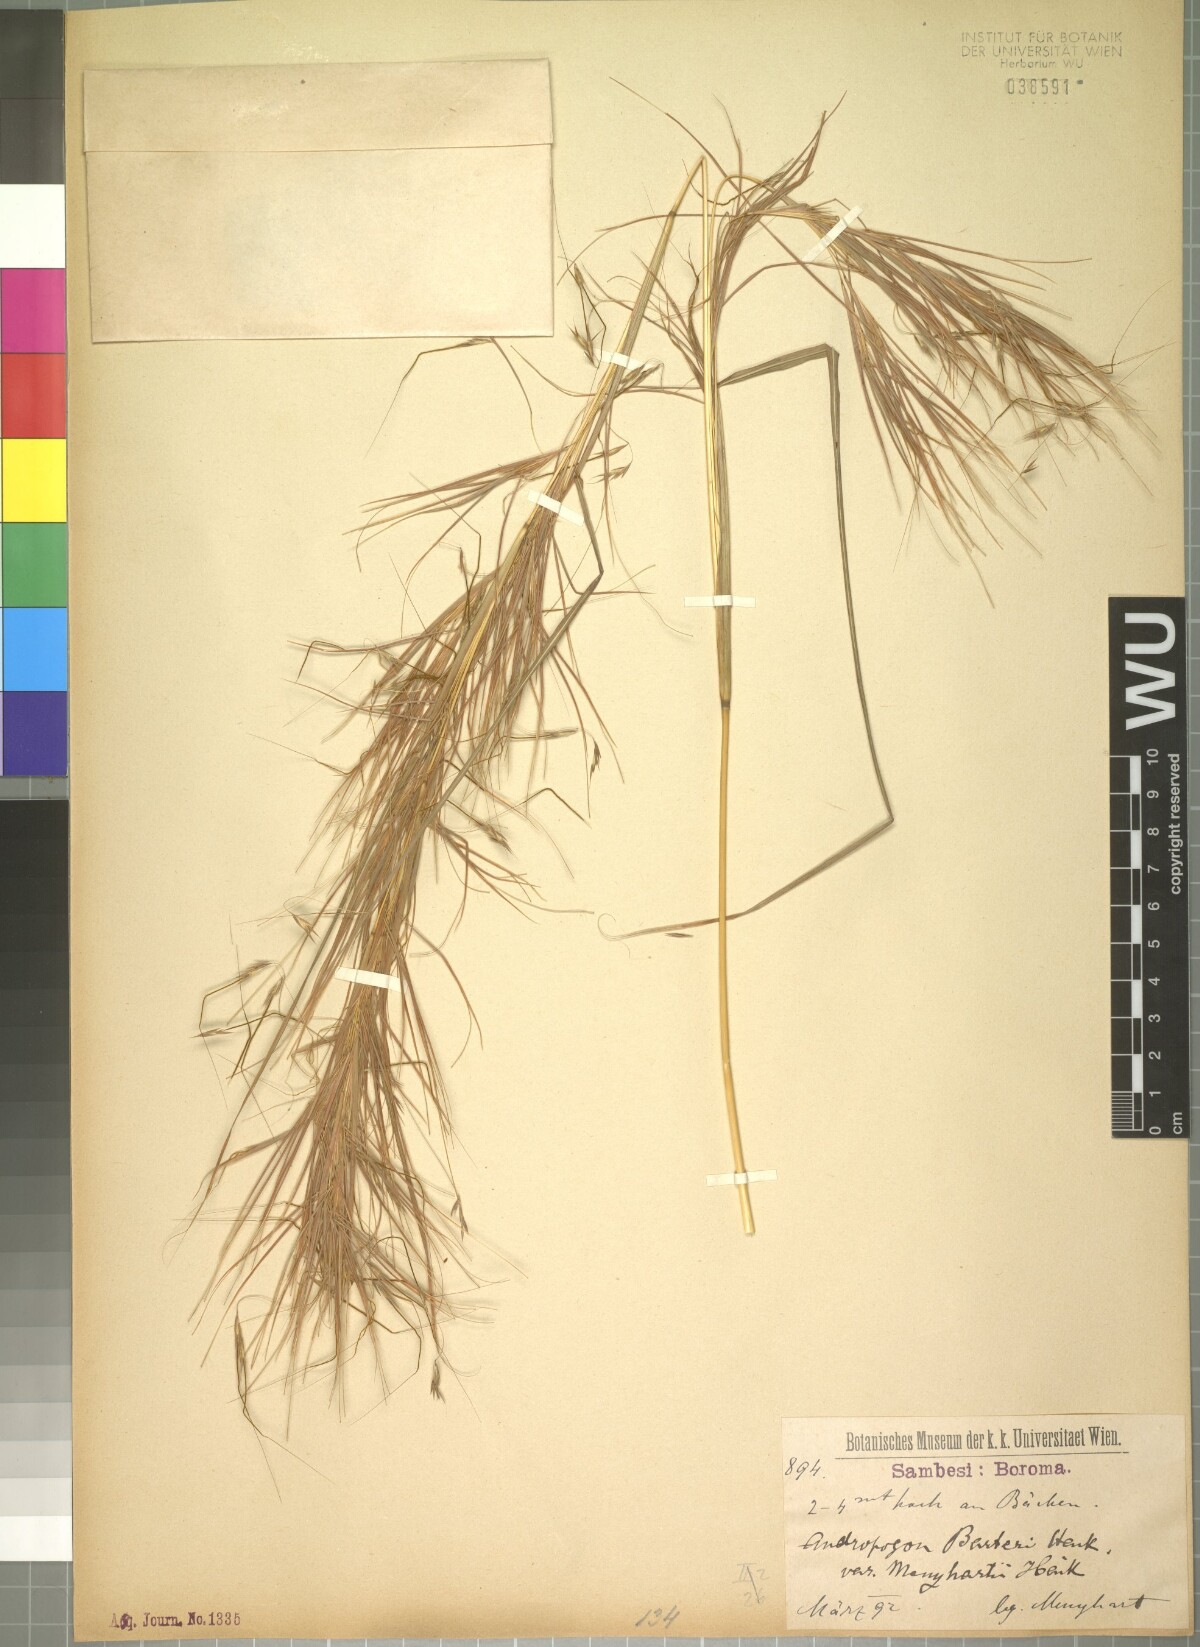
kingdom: Plantae
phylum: Tracheophyta
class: Liliopsida
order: Poales
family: Poaceae
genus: Hyparrhenia
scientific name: Hyparrhenia filipendula
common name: Tambookie grass
